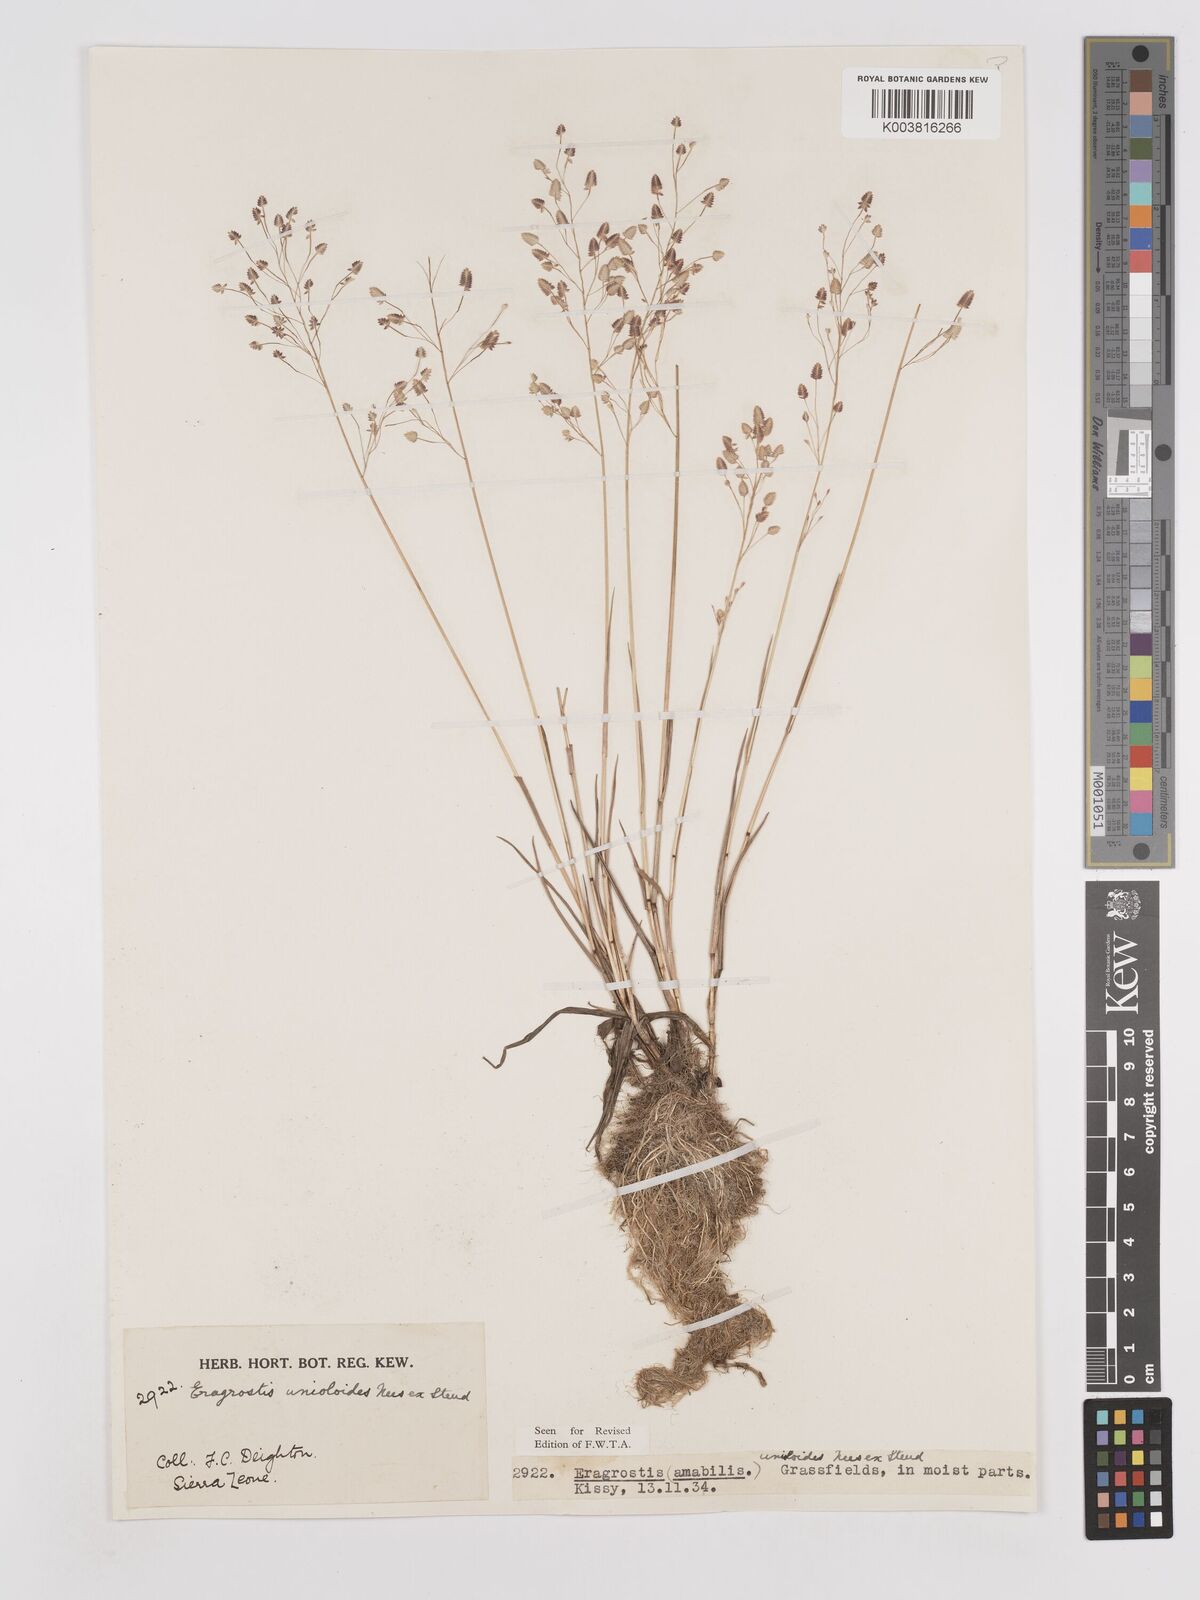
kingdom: Plantae
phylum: Tracheophyta
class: Liliopsida
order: Poales
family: Poaceae
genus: Eragrostis
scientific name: Eragrostis unioloides
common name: Chinese lovegrass
